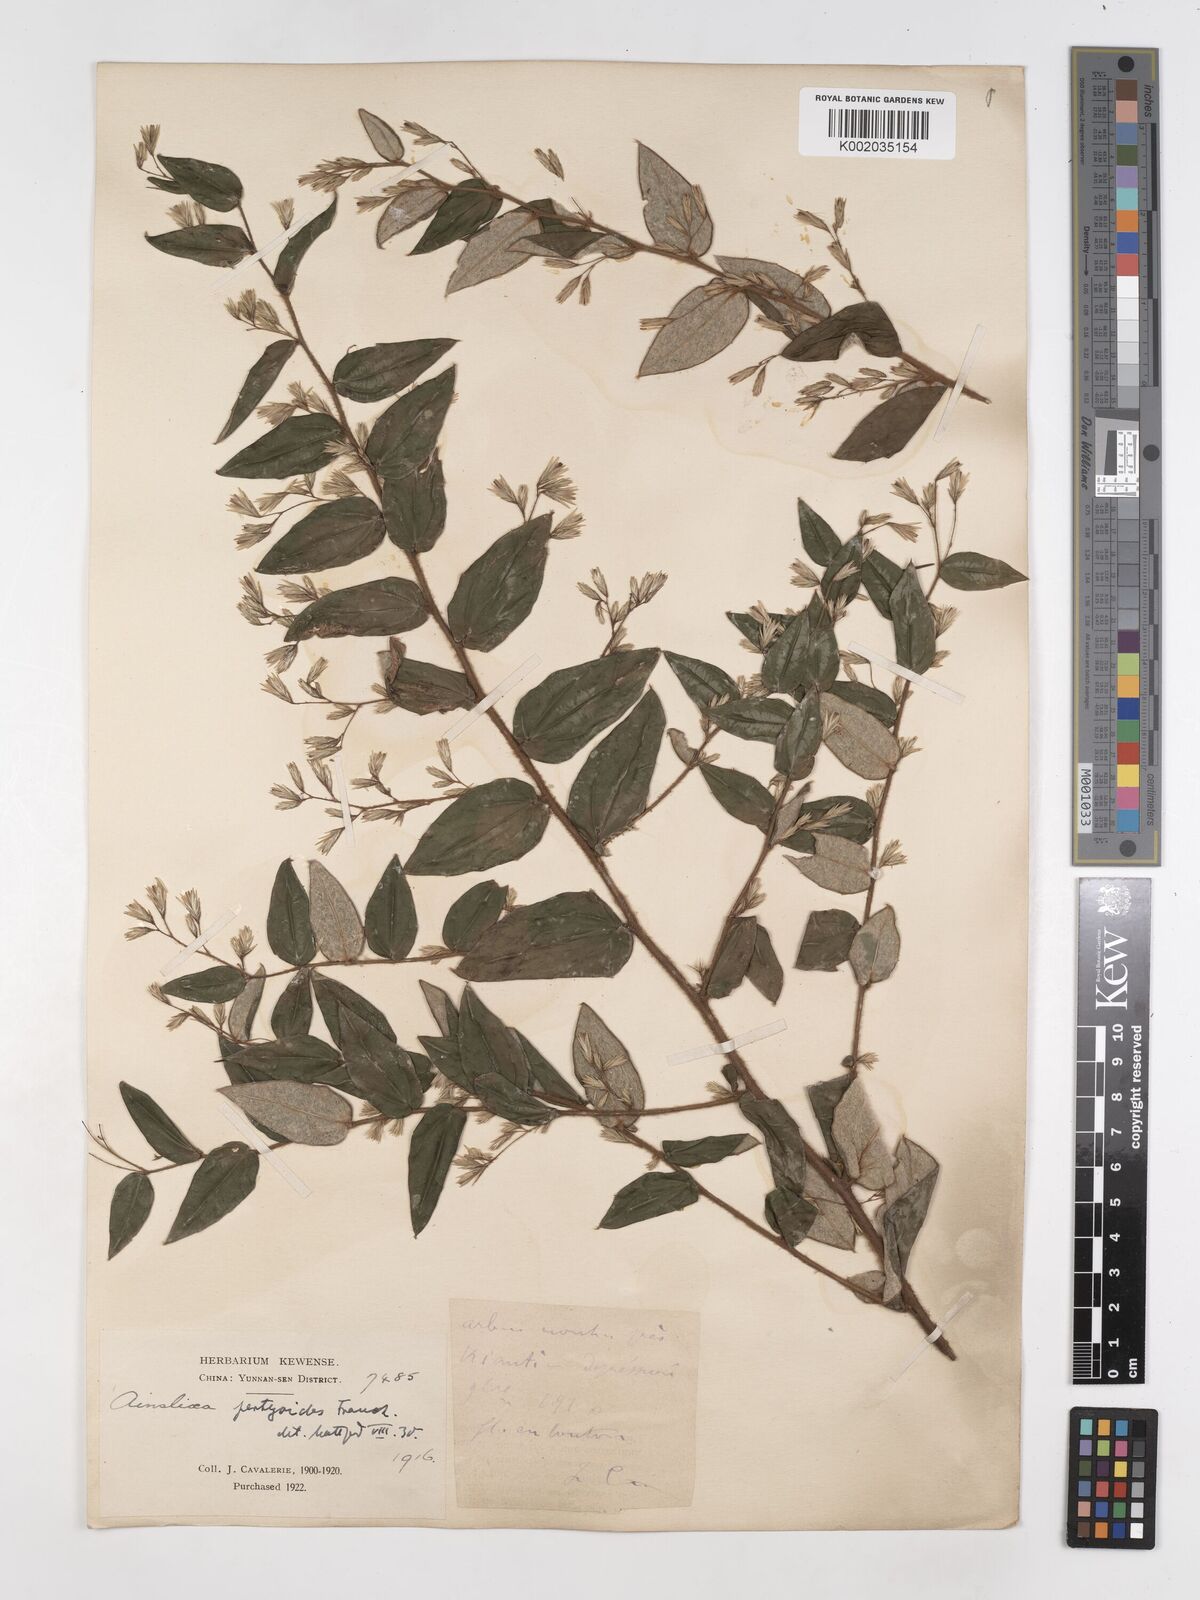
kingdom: Plantae
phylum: Tracheophyta
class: Magnoliopsida
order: Asterales
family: Asteraceae
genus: Ainsliaea
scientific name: Ainsliaea pertyoides
